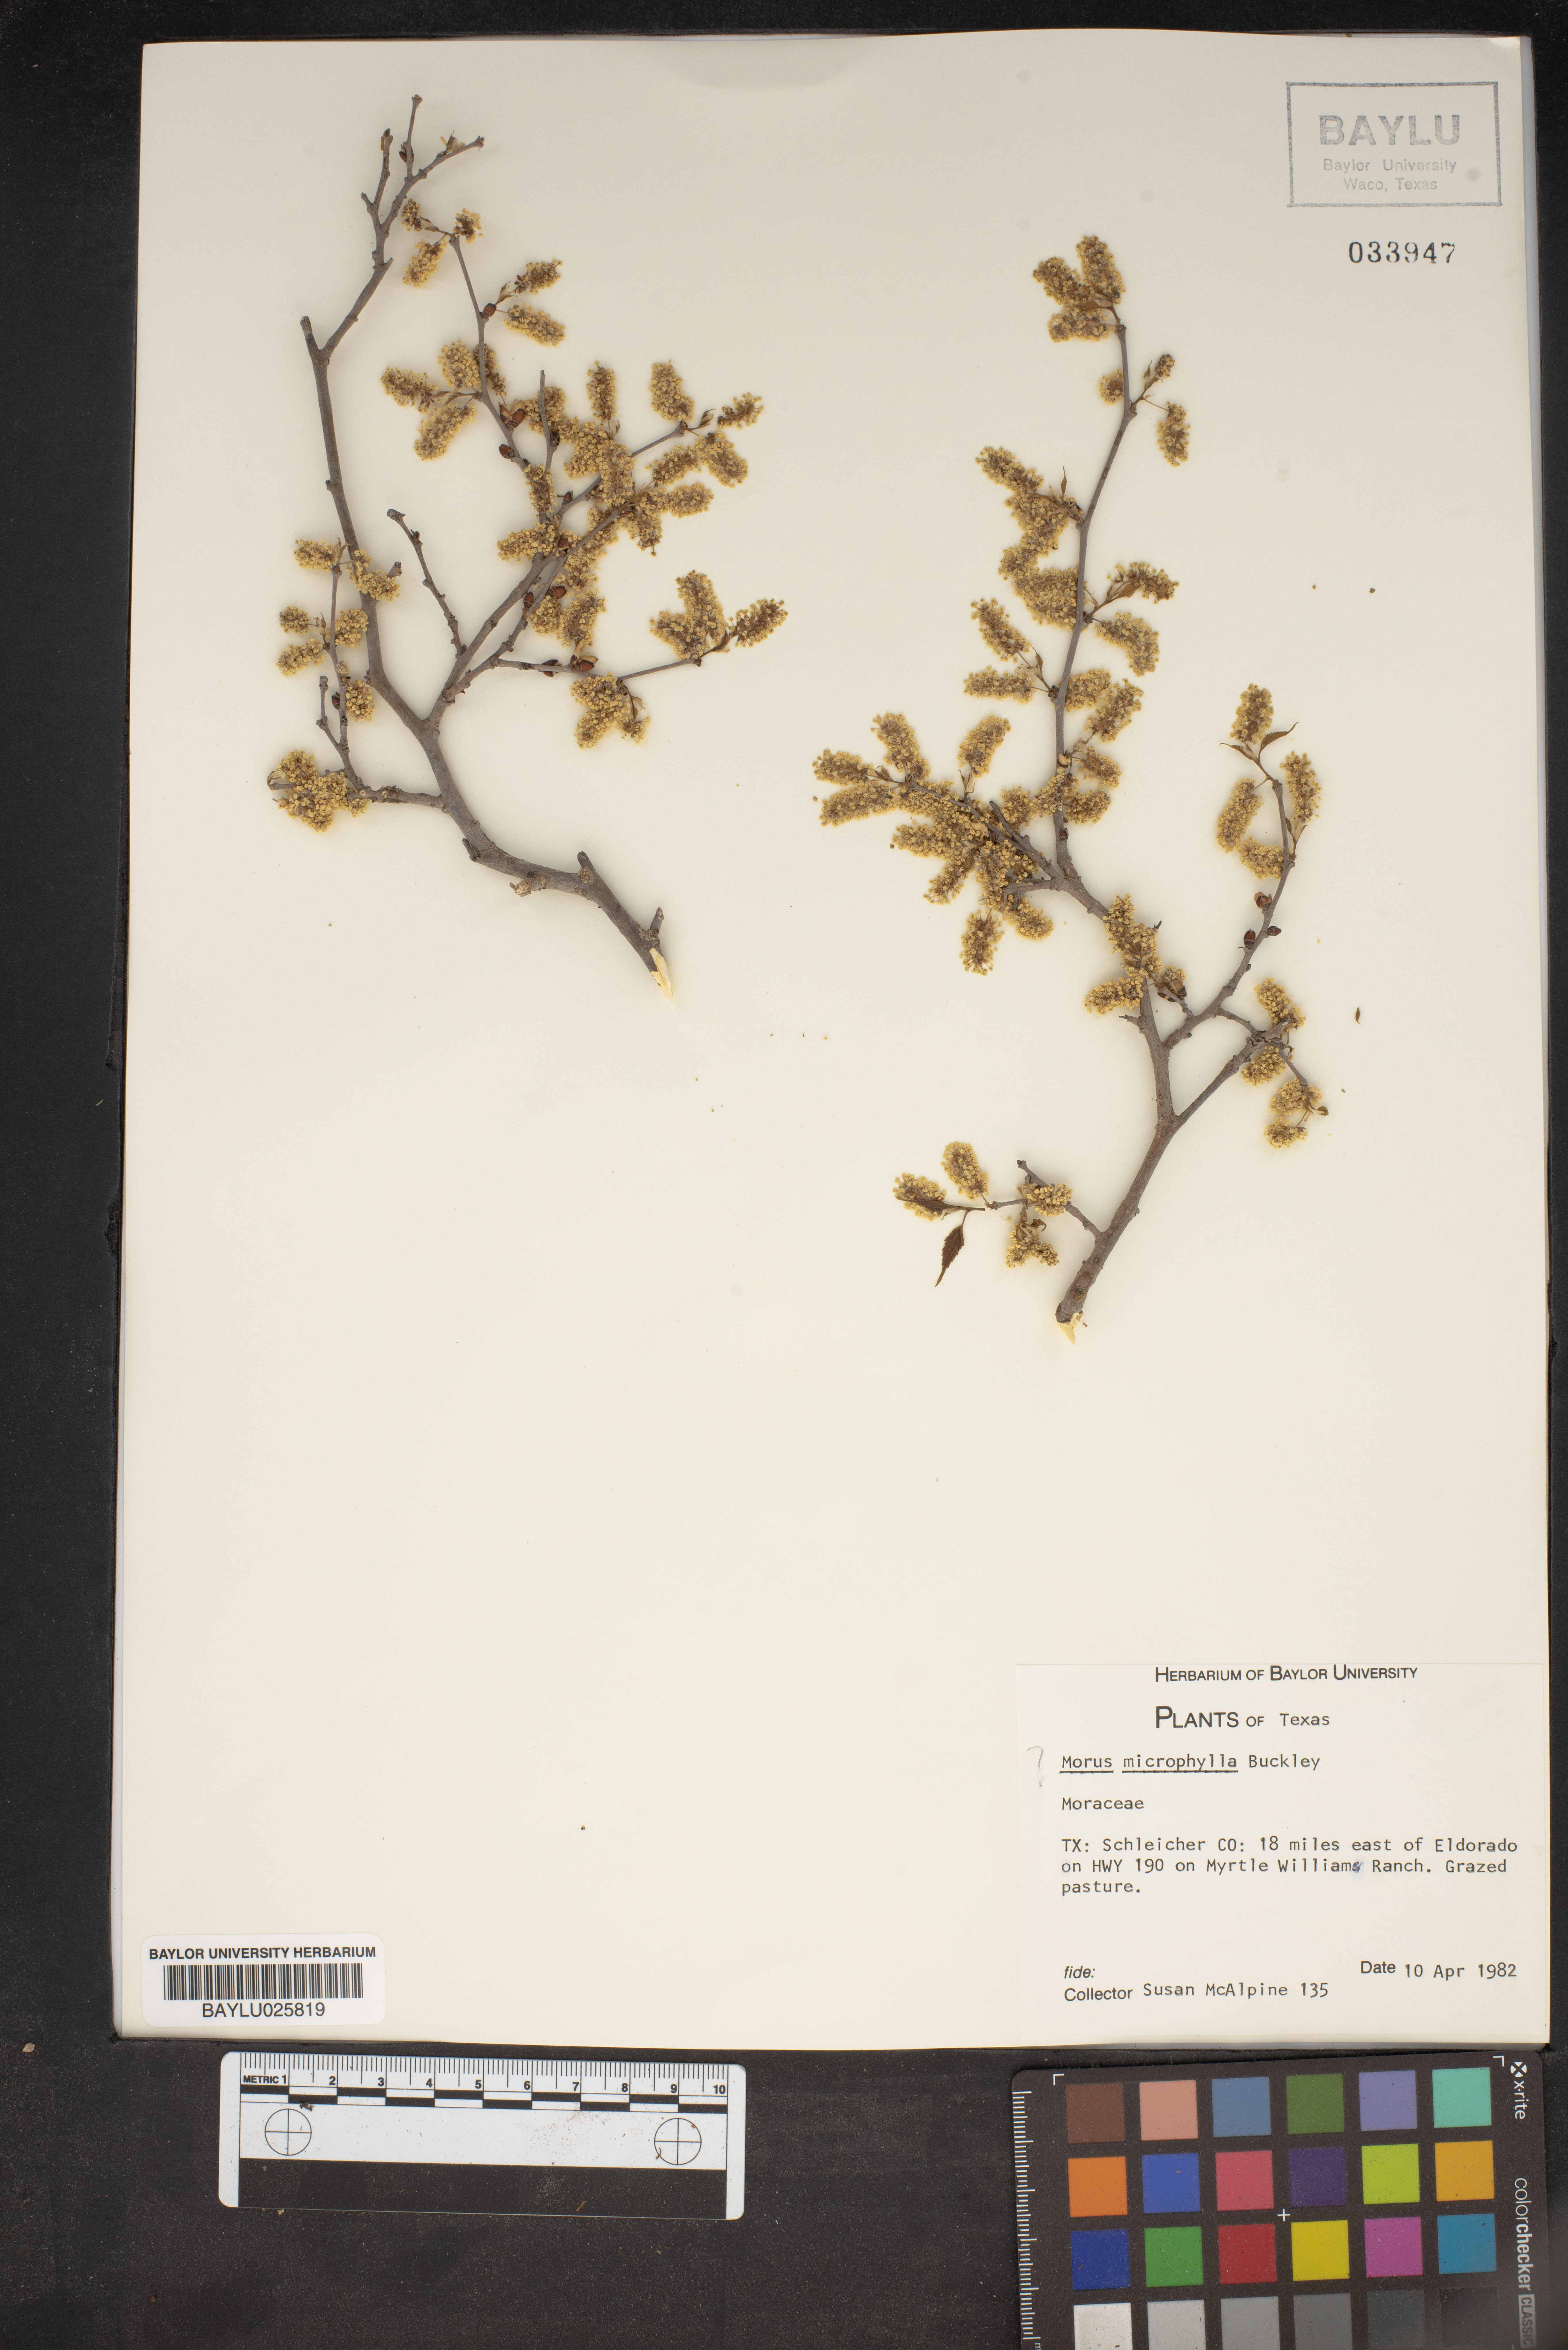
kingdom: Plantae
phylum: Tracheophyta
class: Magnoliopsida
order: Rosales
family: Moraceae
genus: Morus
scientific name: Morus microphylla
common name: Mexican mulberry
